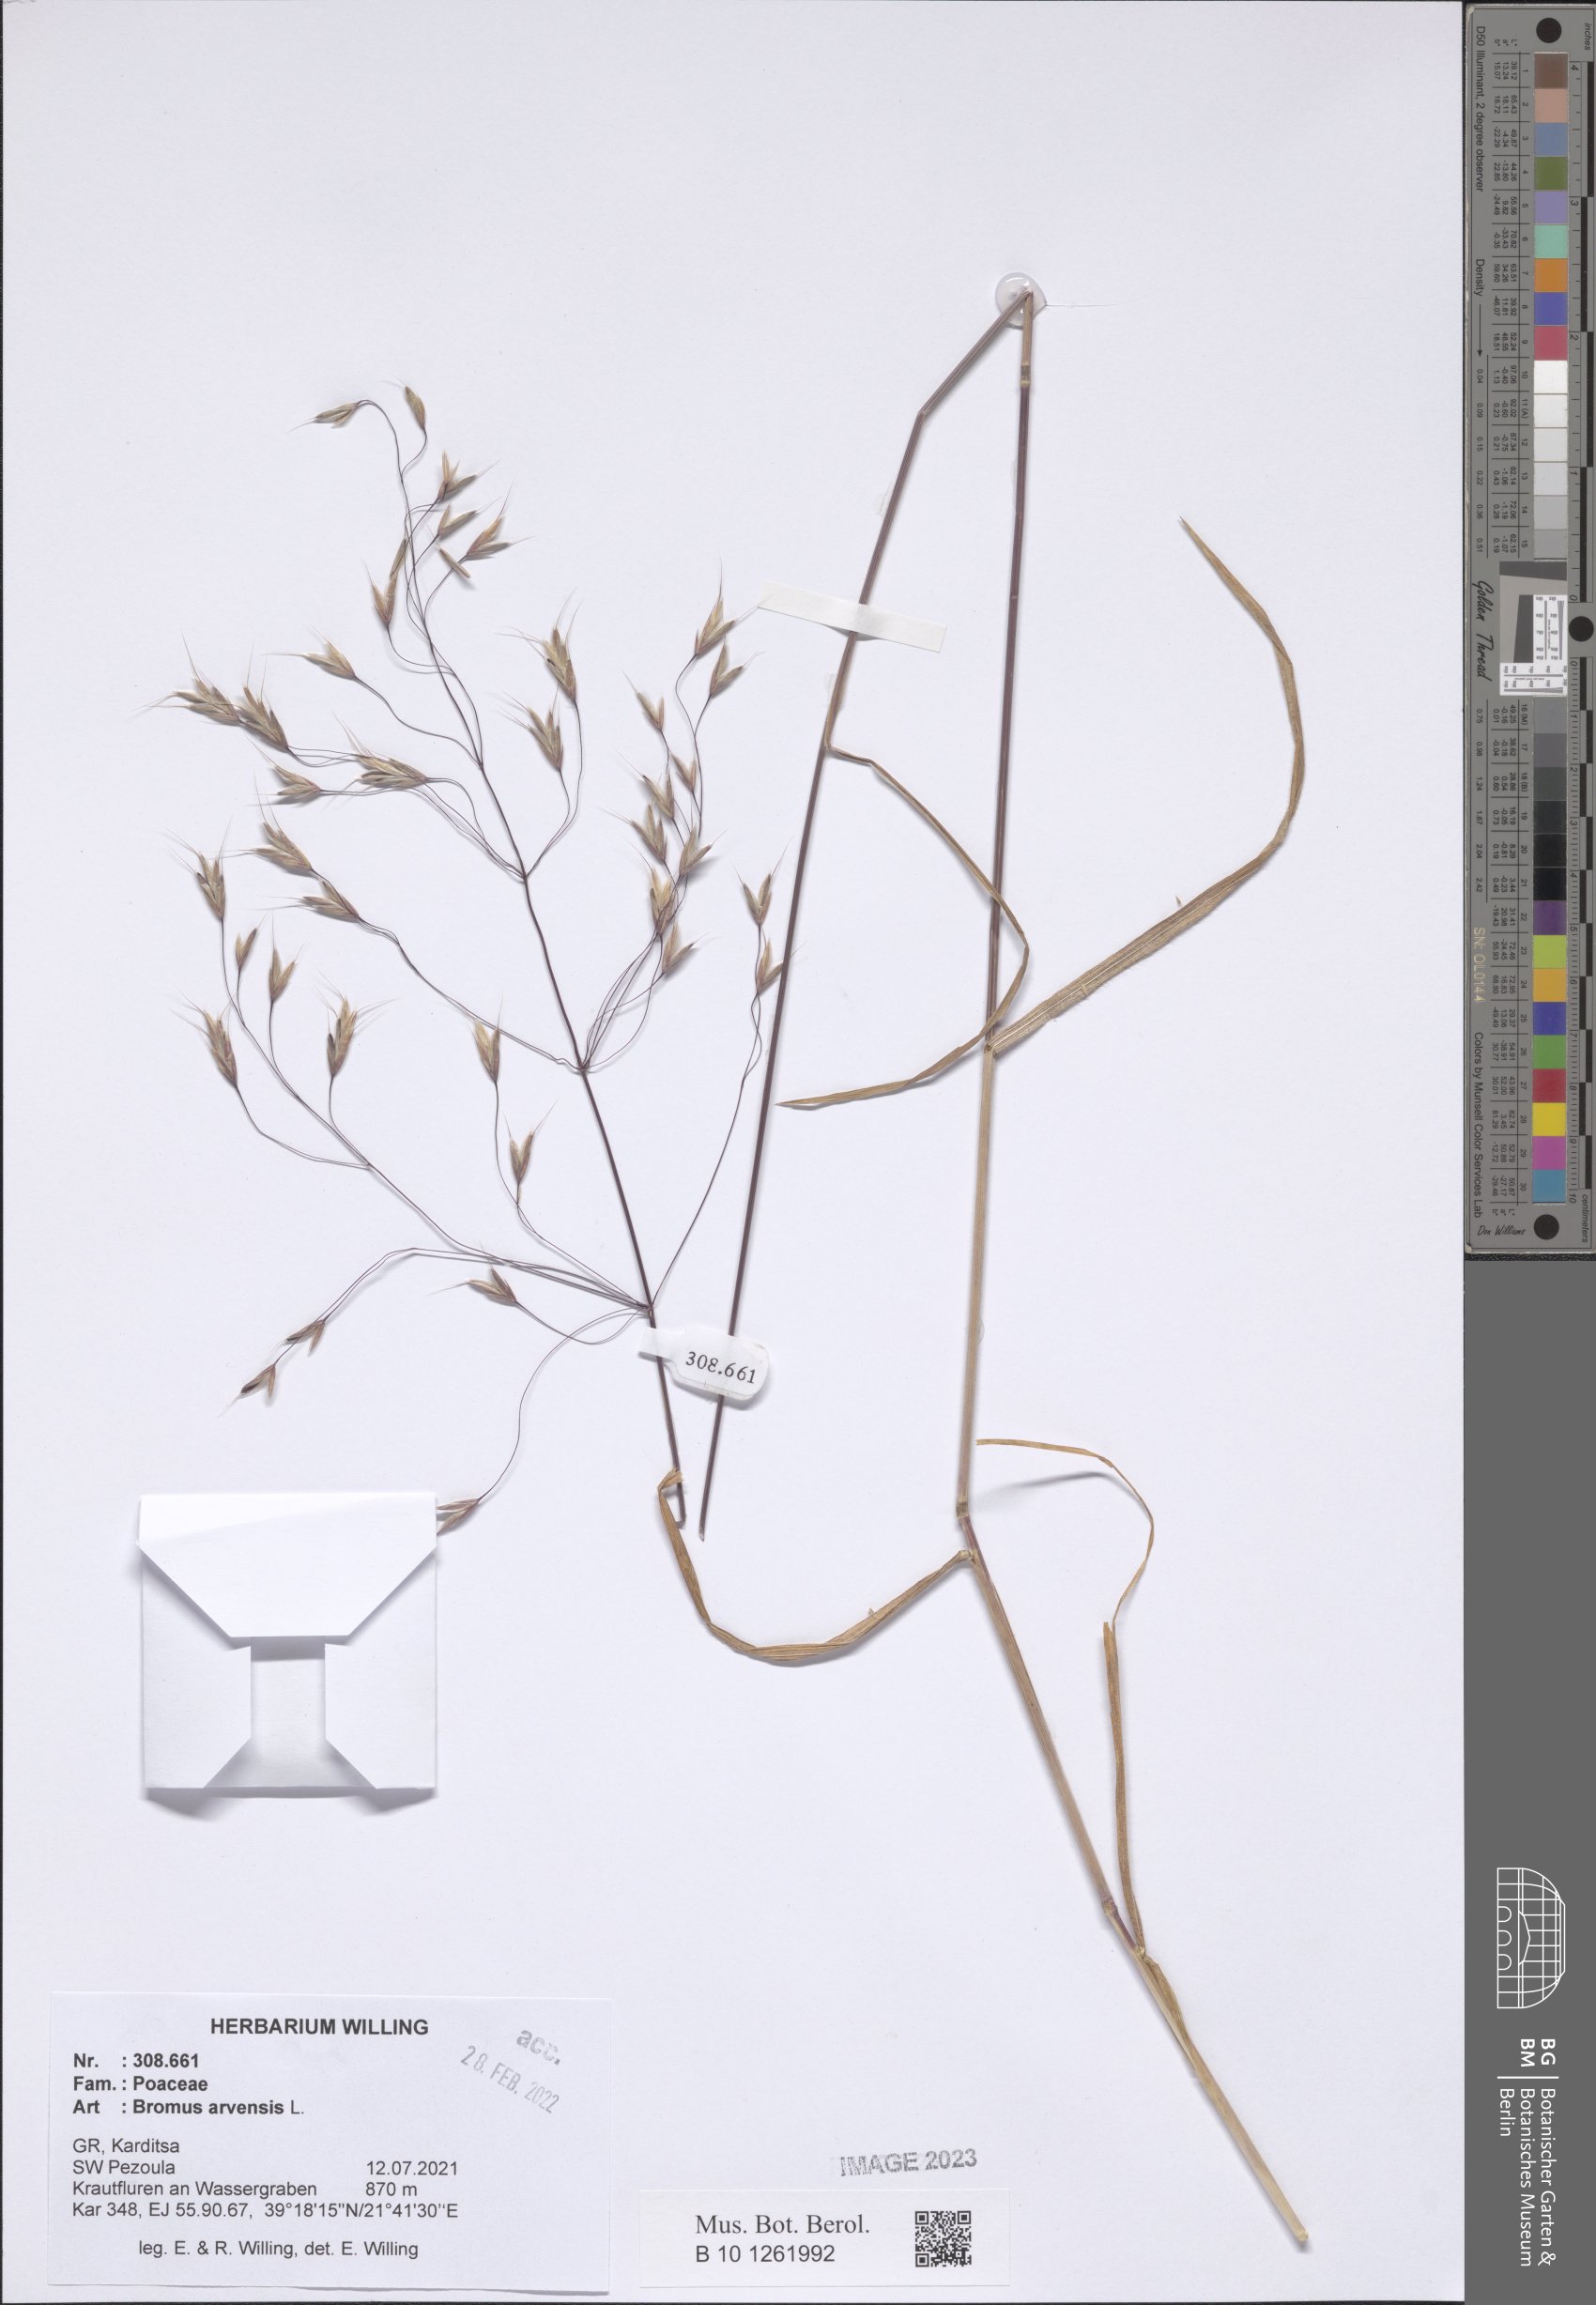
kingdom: Plantae
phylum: Tracheophyta
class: Liliopsida
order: Poales
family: Poaceae
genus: Bromus
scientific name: Bromus arvensis
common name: Field brome
